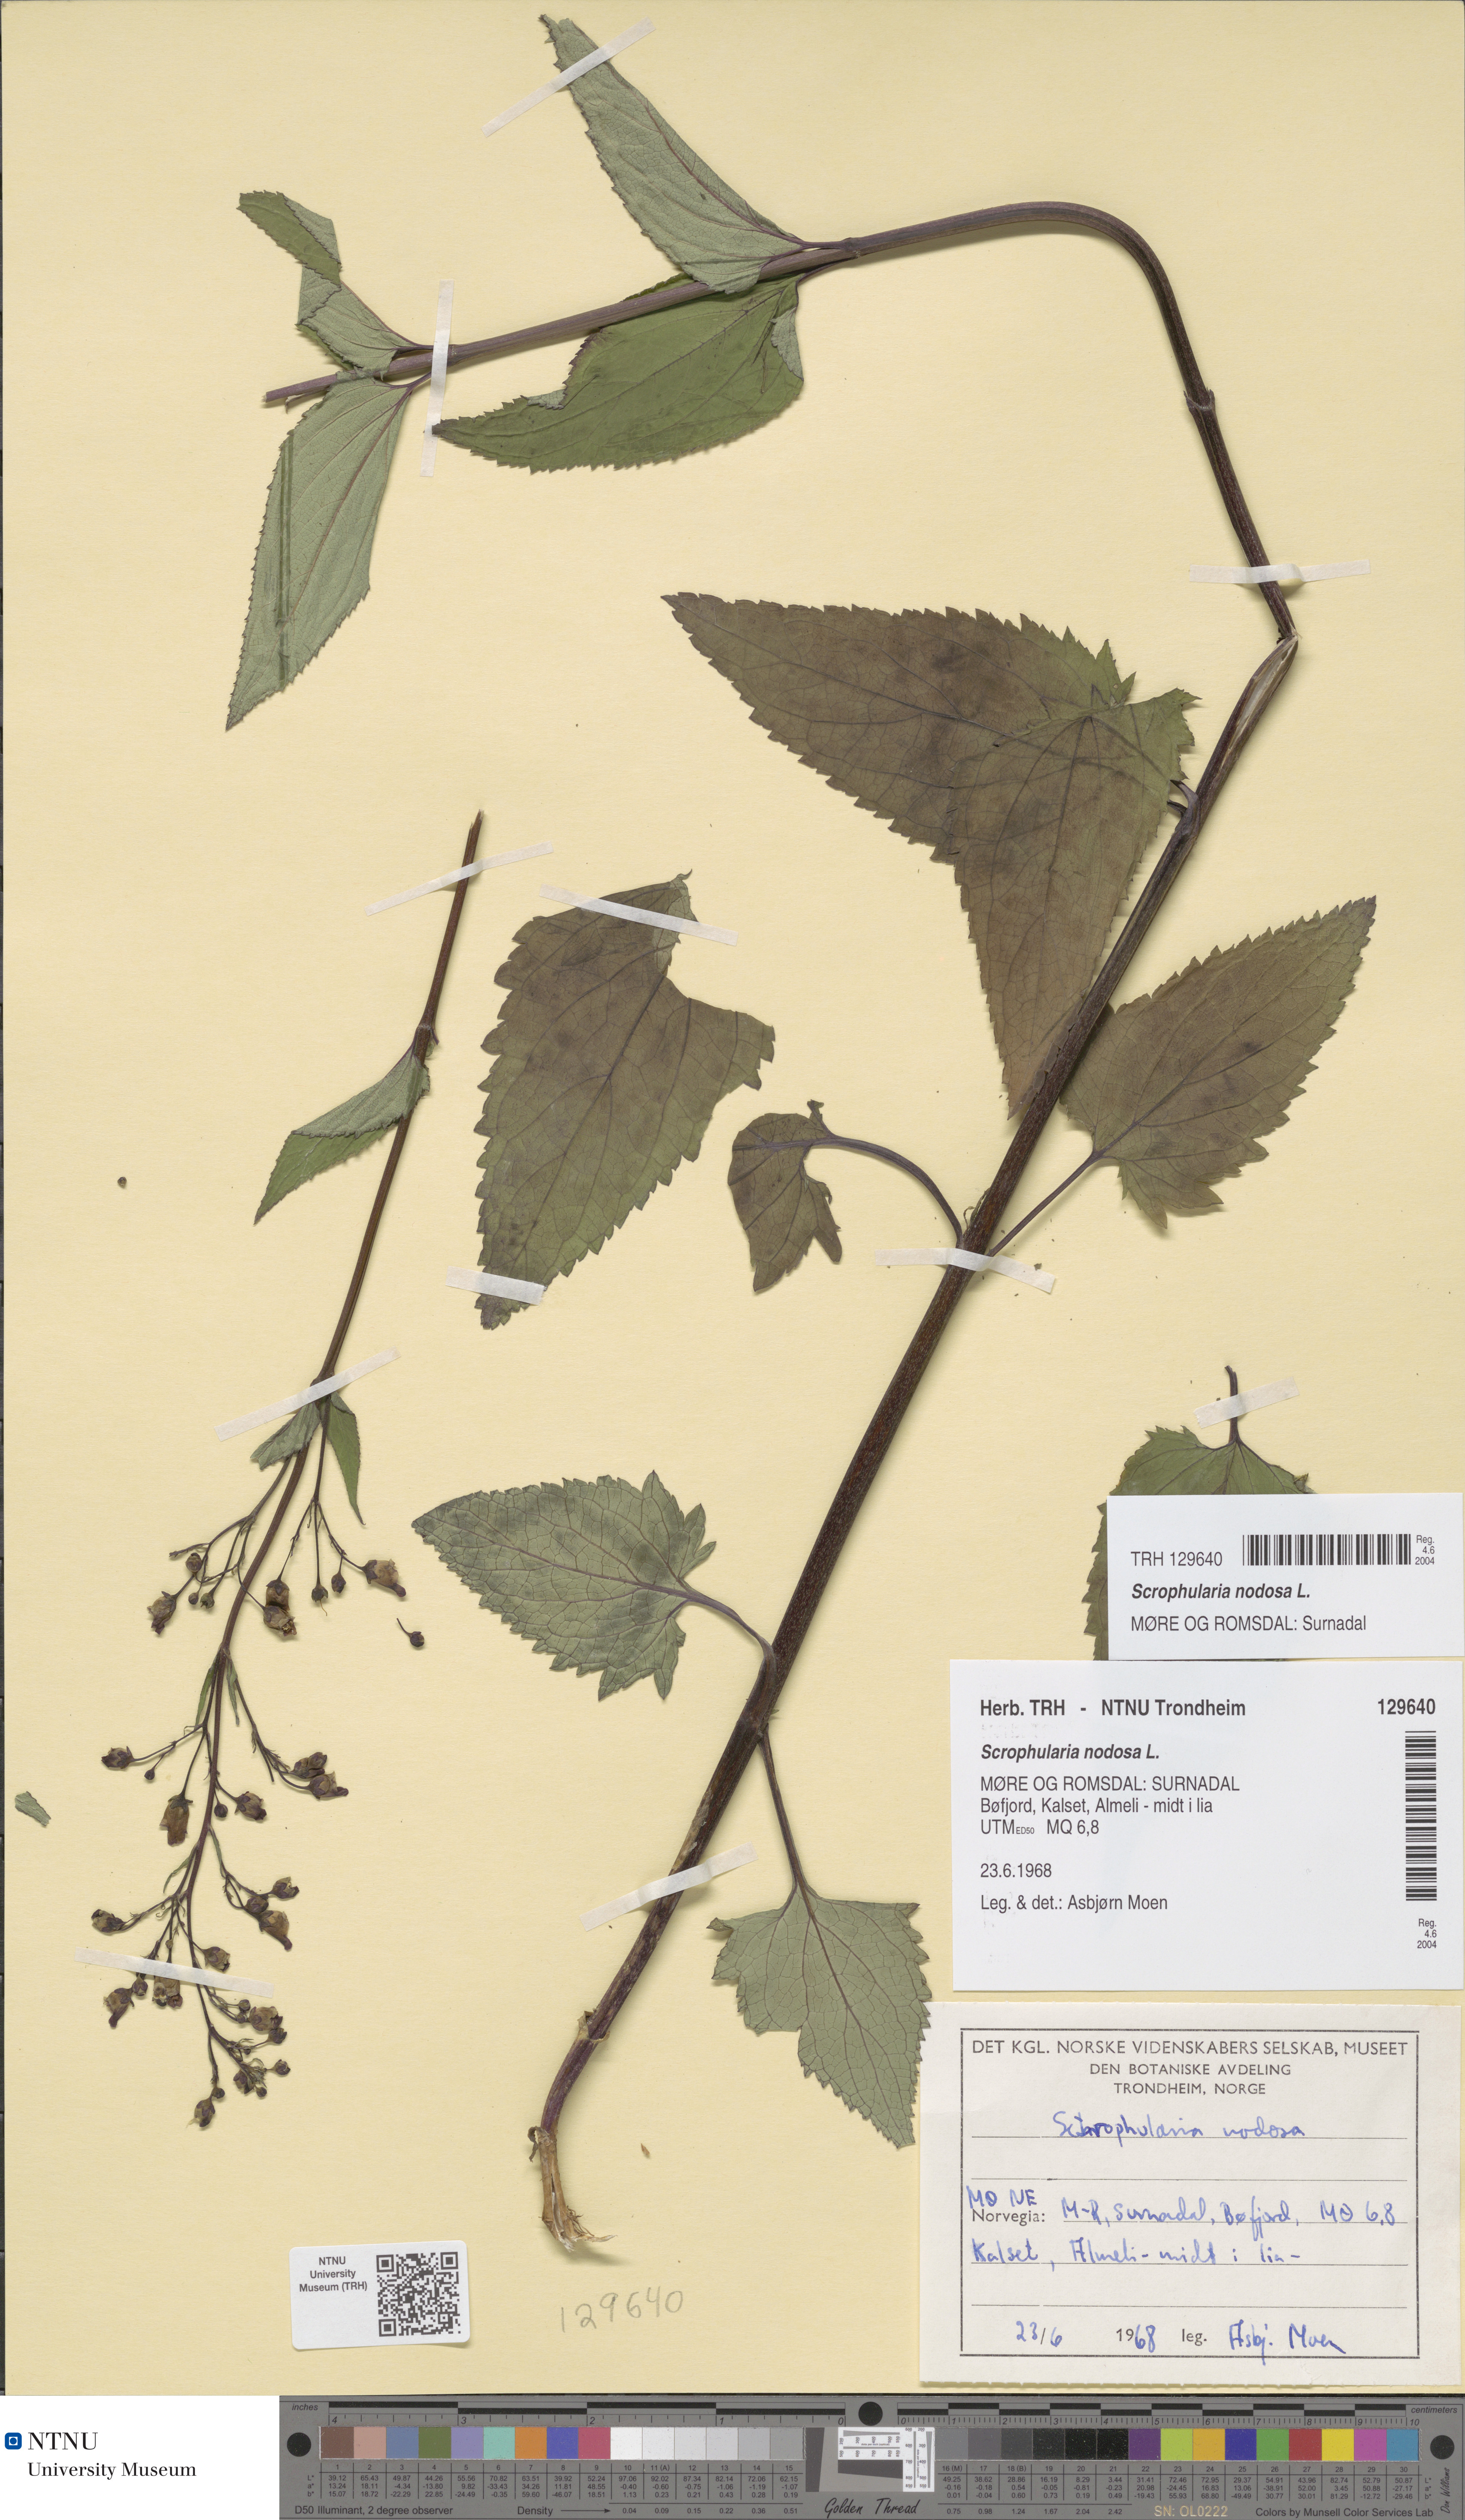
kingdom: Plantae
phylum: Tracheophyta
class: Magnoliopsida
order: Lamiales
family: Scrophulariaceae
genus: Scrophularia
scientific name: Scrophularia nodosa
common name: Common figwort
